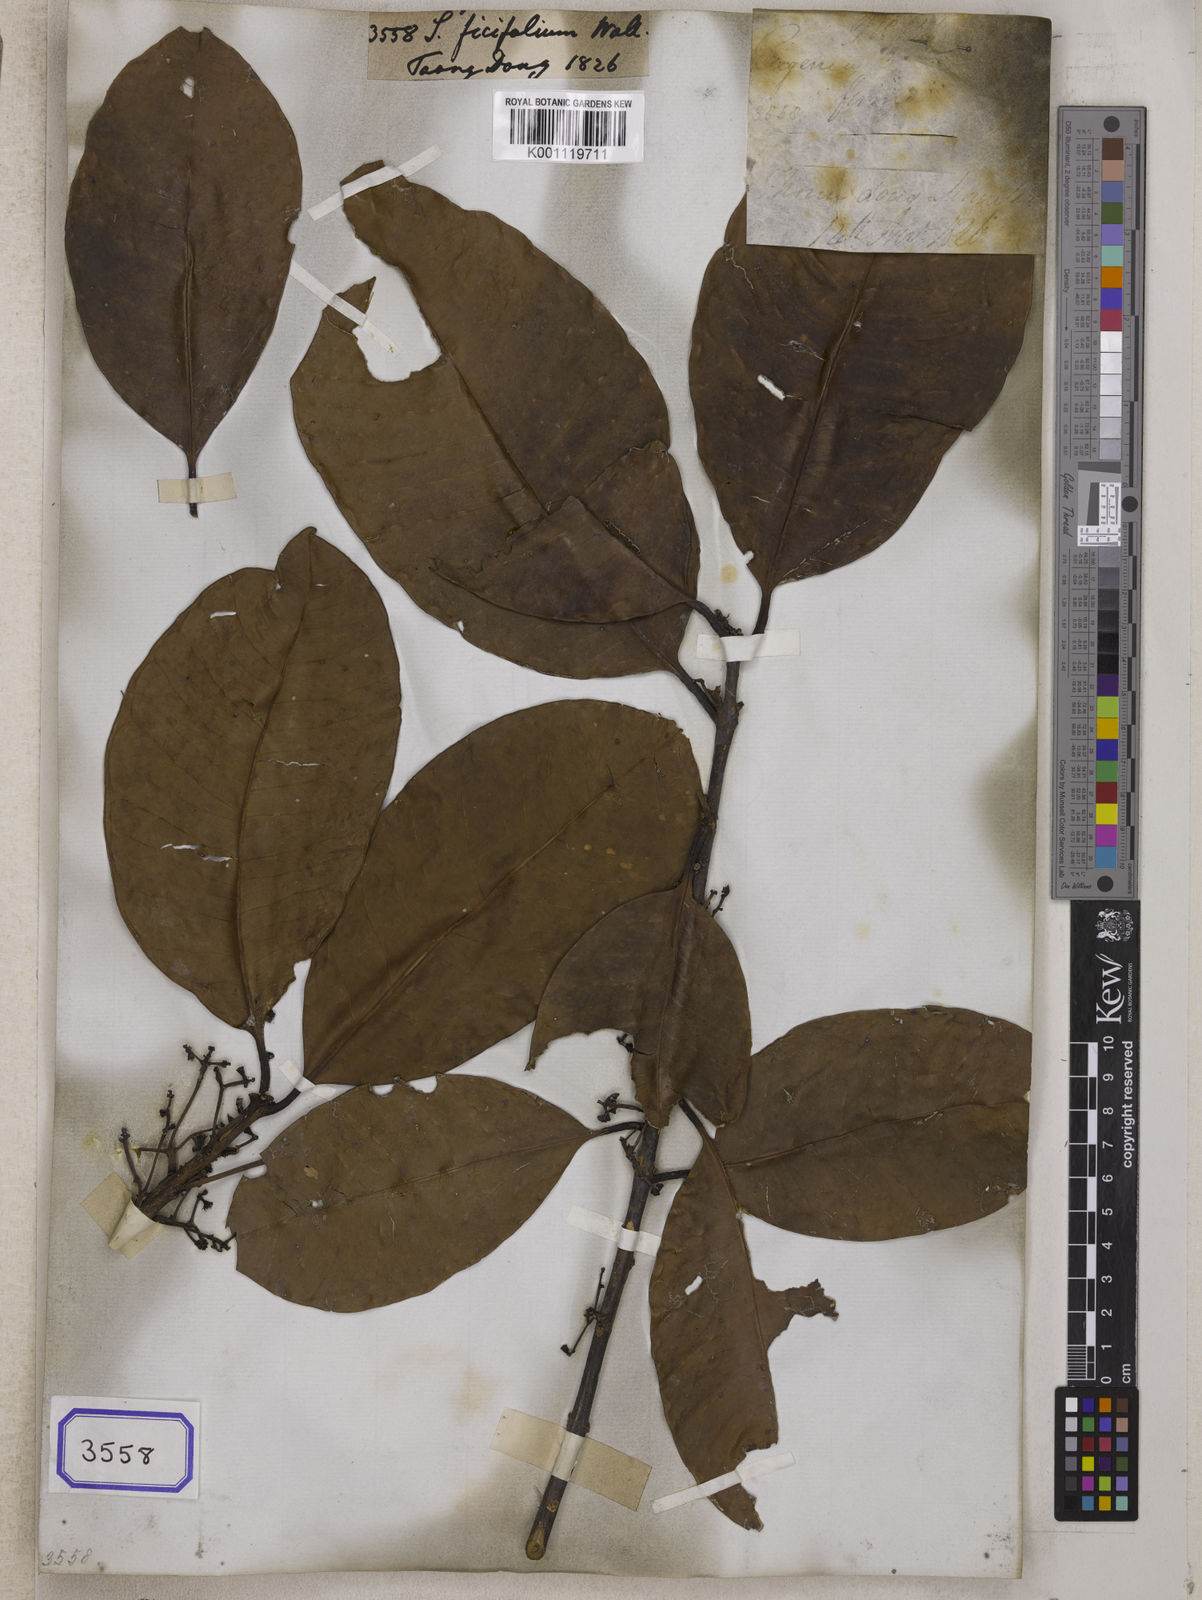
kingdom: Plantae
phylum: Tracheophyta
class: Magnoliopsida
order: Myrtales
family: Myrtaceae
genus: Syzygium
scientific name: Syzygium
